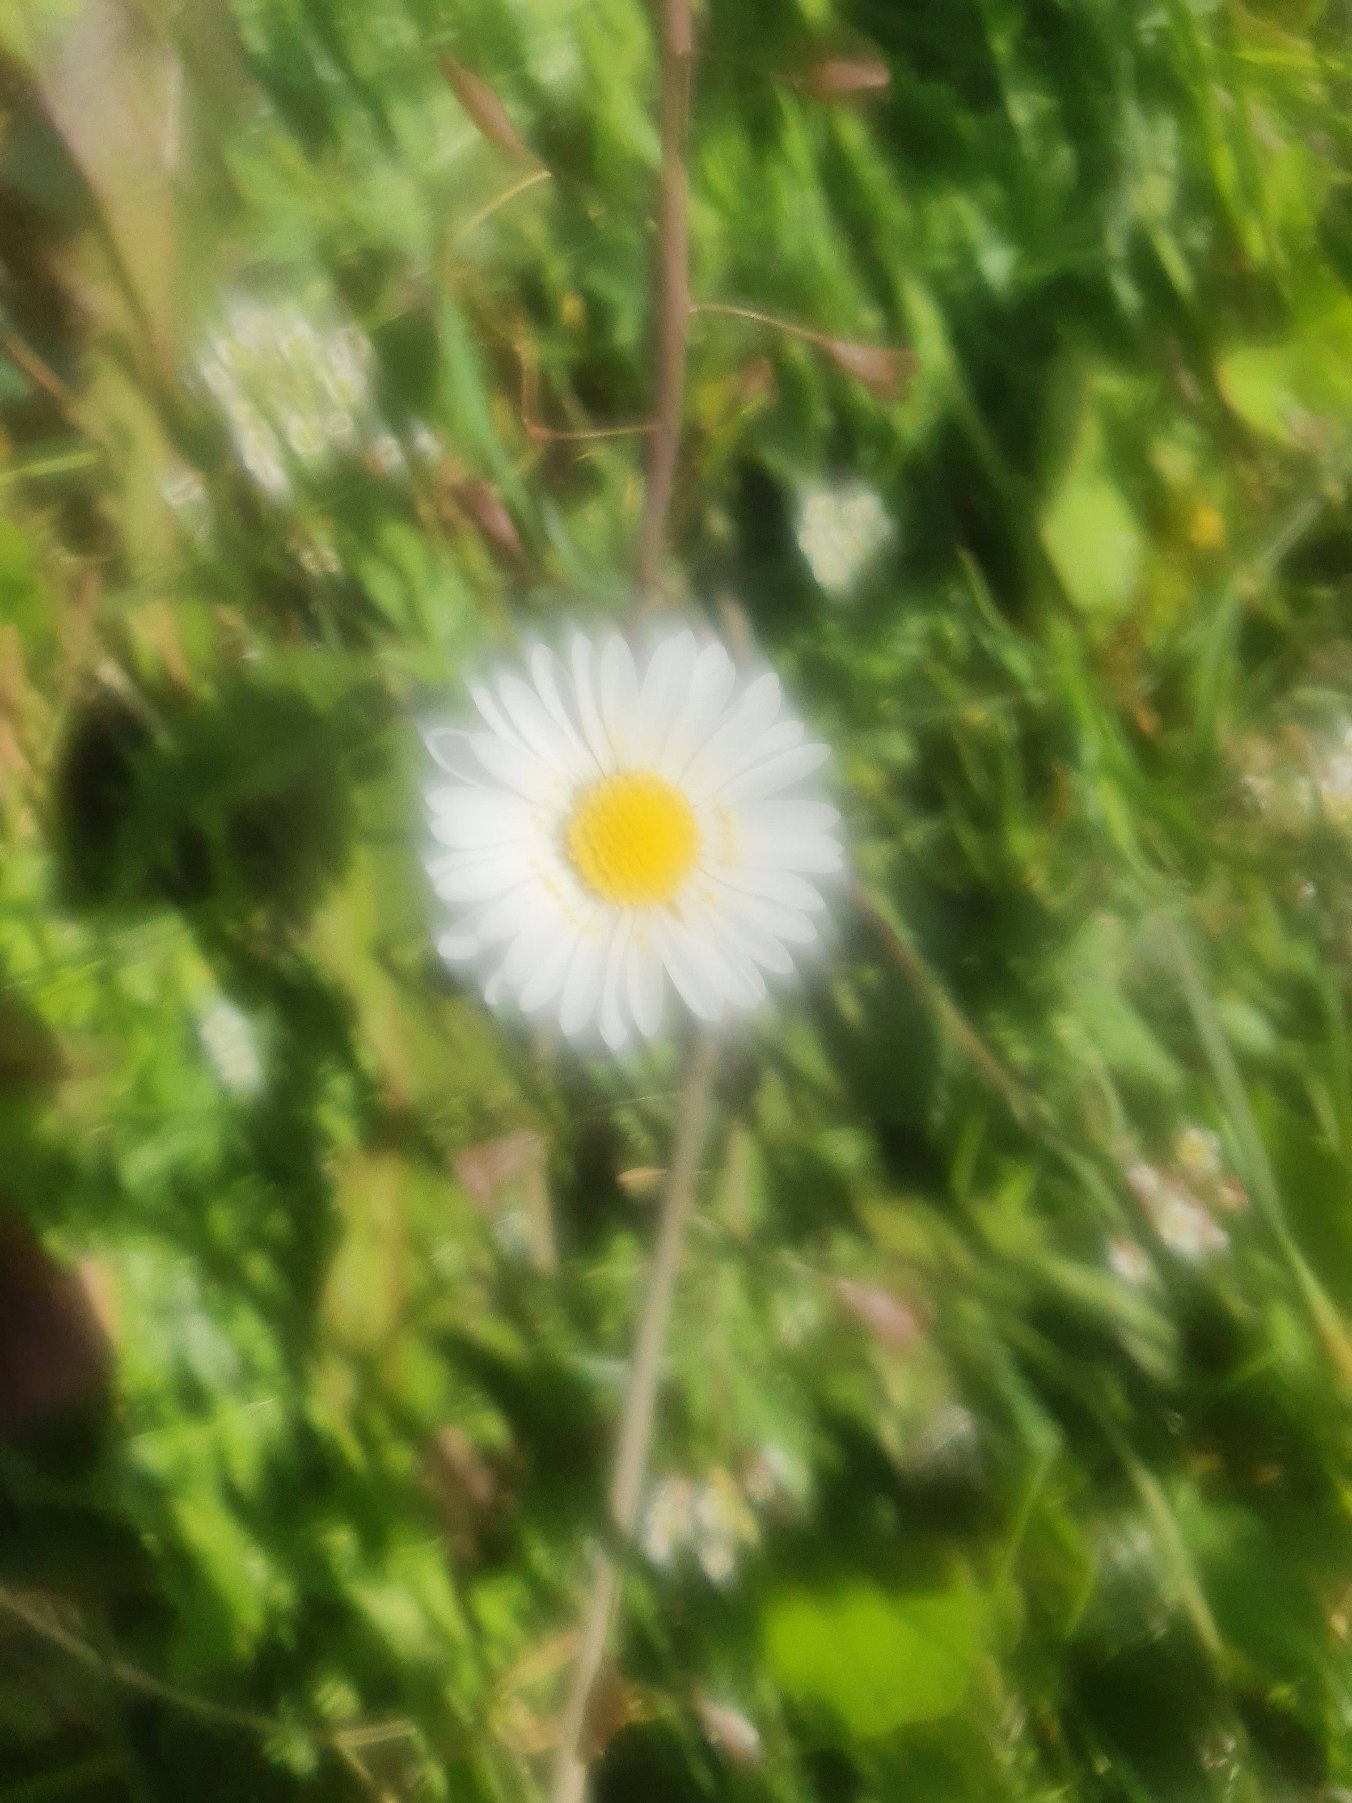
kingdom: Plantae
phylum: Tracheophyta
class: Magnoliopsida
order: Asterales
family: Asteraceae
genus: Bellis
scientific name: Bellis perennis
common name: Tusindfryd
